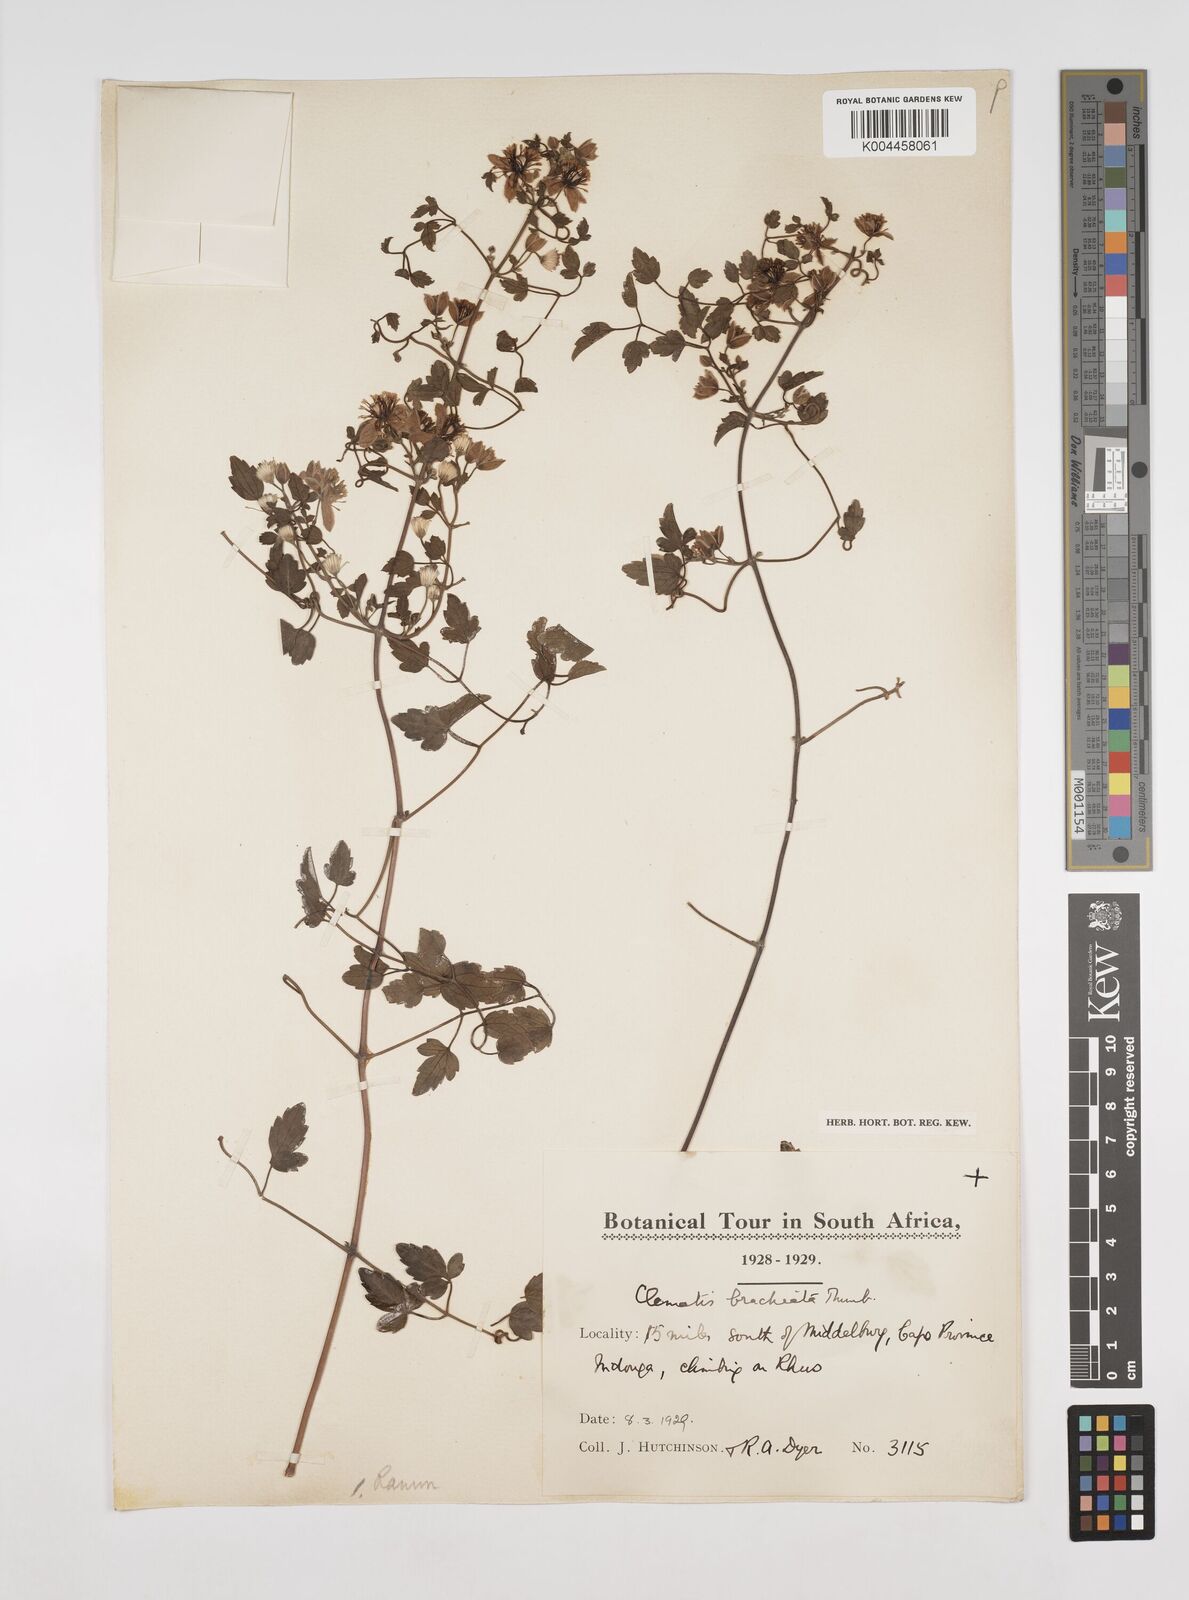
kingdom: Plantae
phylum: Tracheophyta
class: Magnoliopsida
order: Ranunculales
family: Ranunculaceae
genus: Clematis
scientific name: Clematis brachiata
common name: Traveler's-joy
